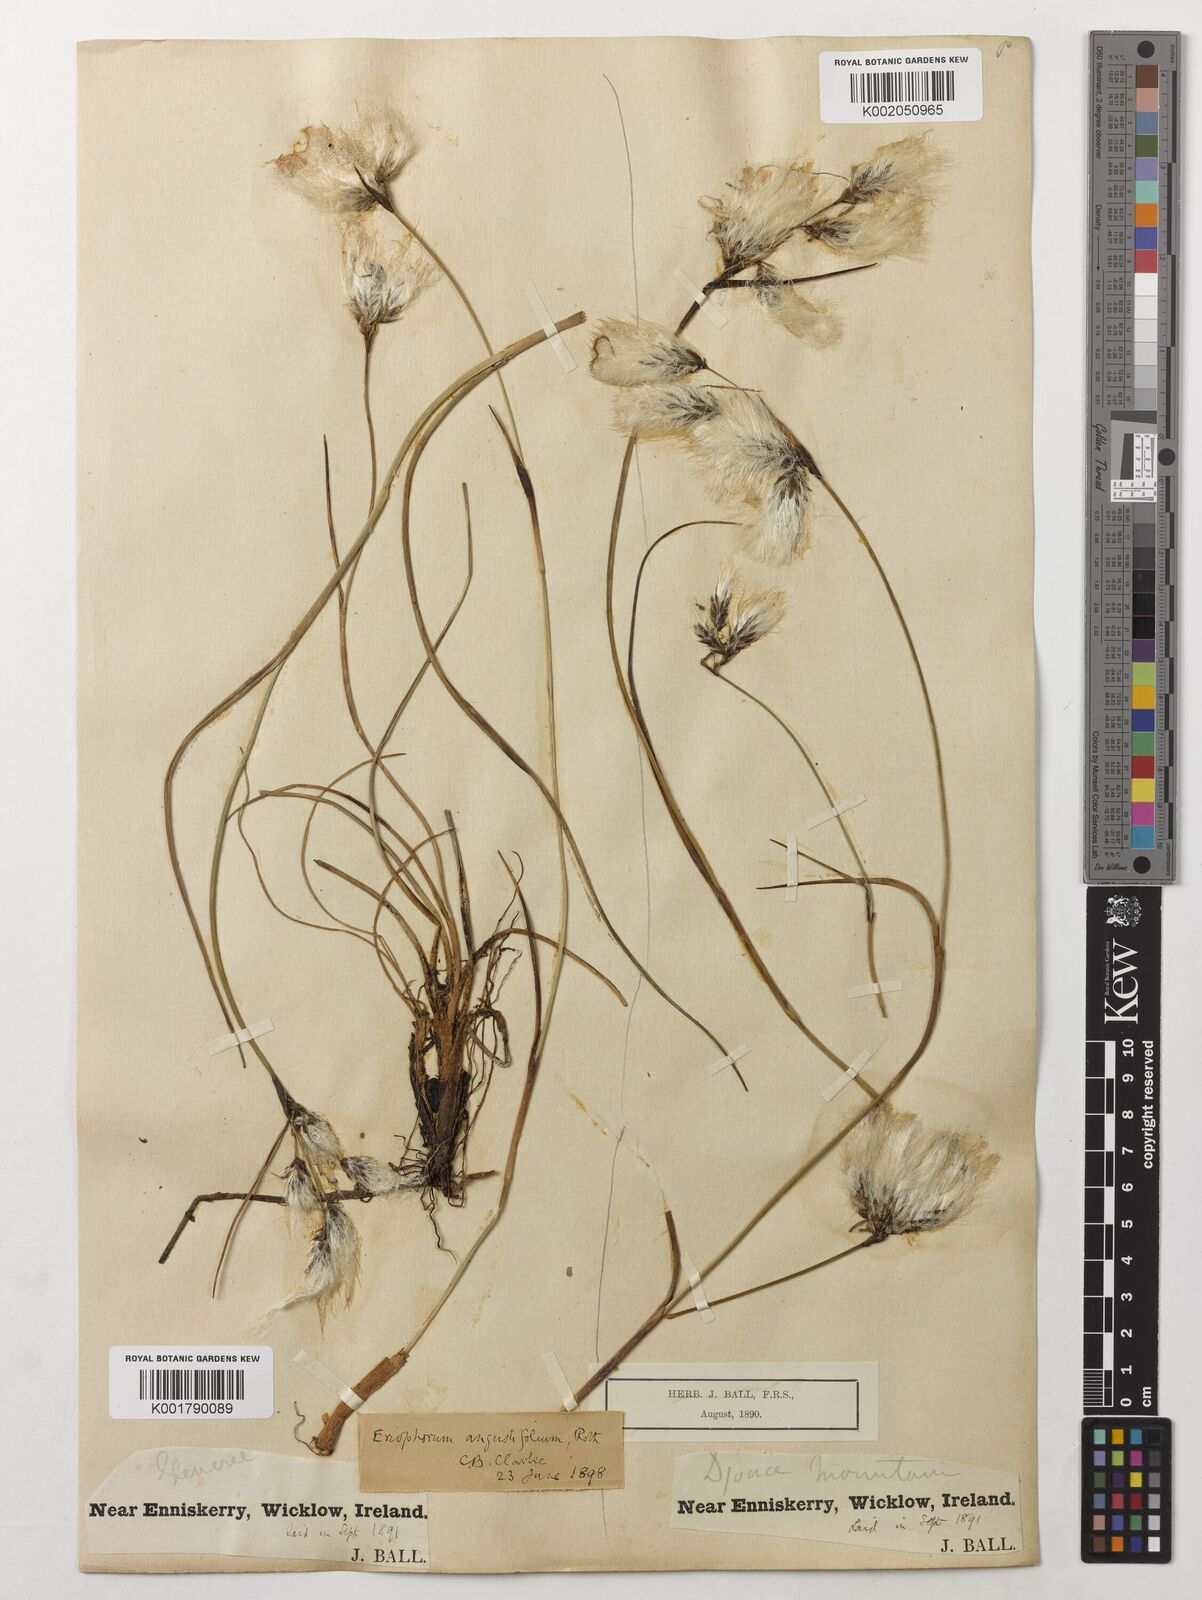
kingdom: Plantae
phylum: Tracheophyta
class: Liliopsida
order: Poales
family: Cyperaceae
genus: Eriophorum
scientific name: Eriophorum angustifolium
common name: Common cottongrass
